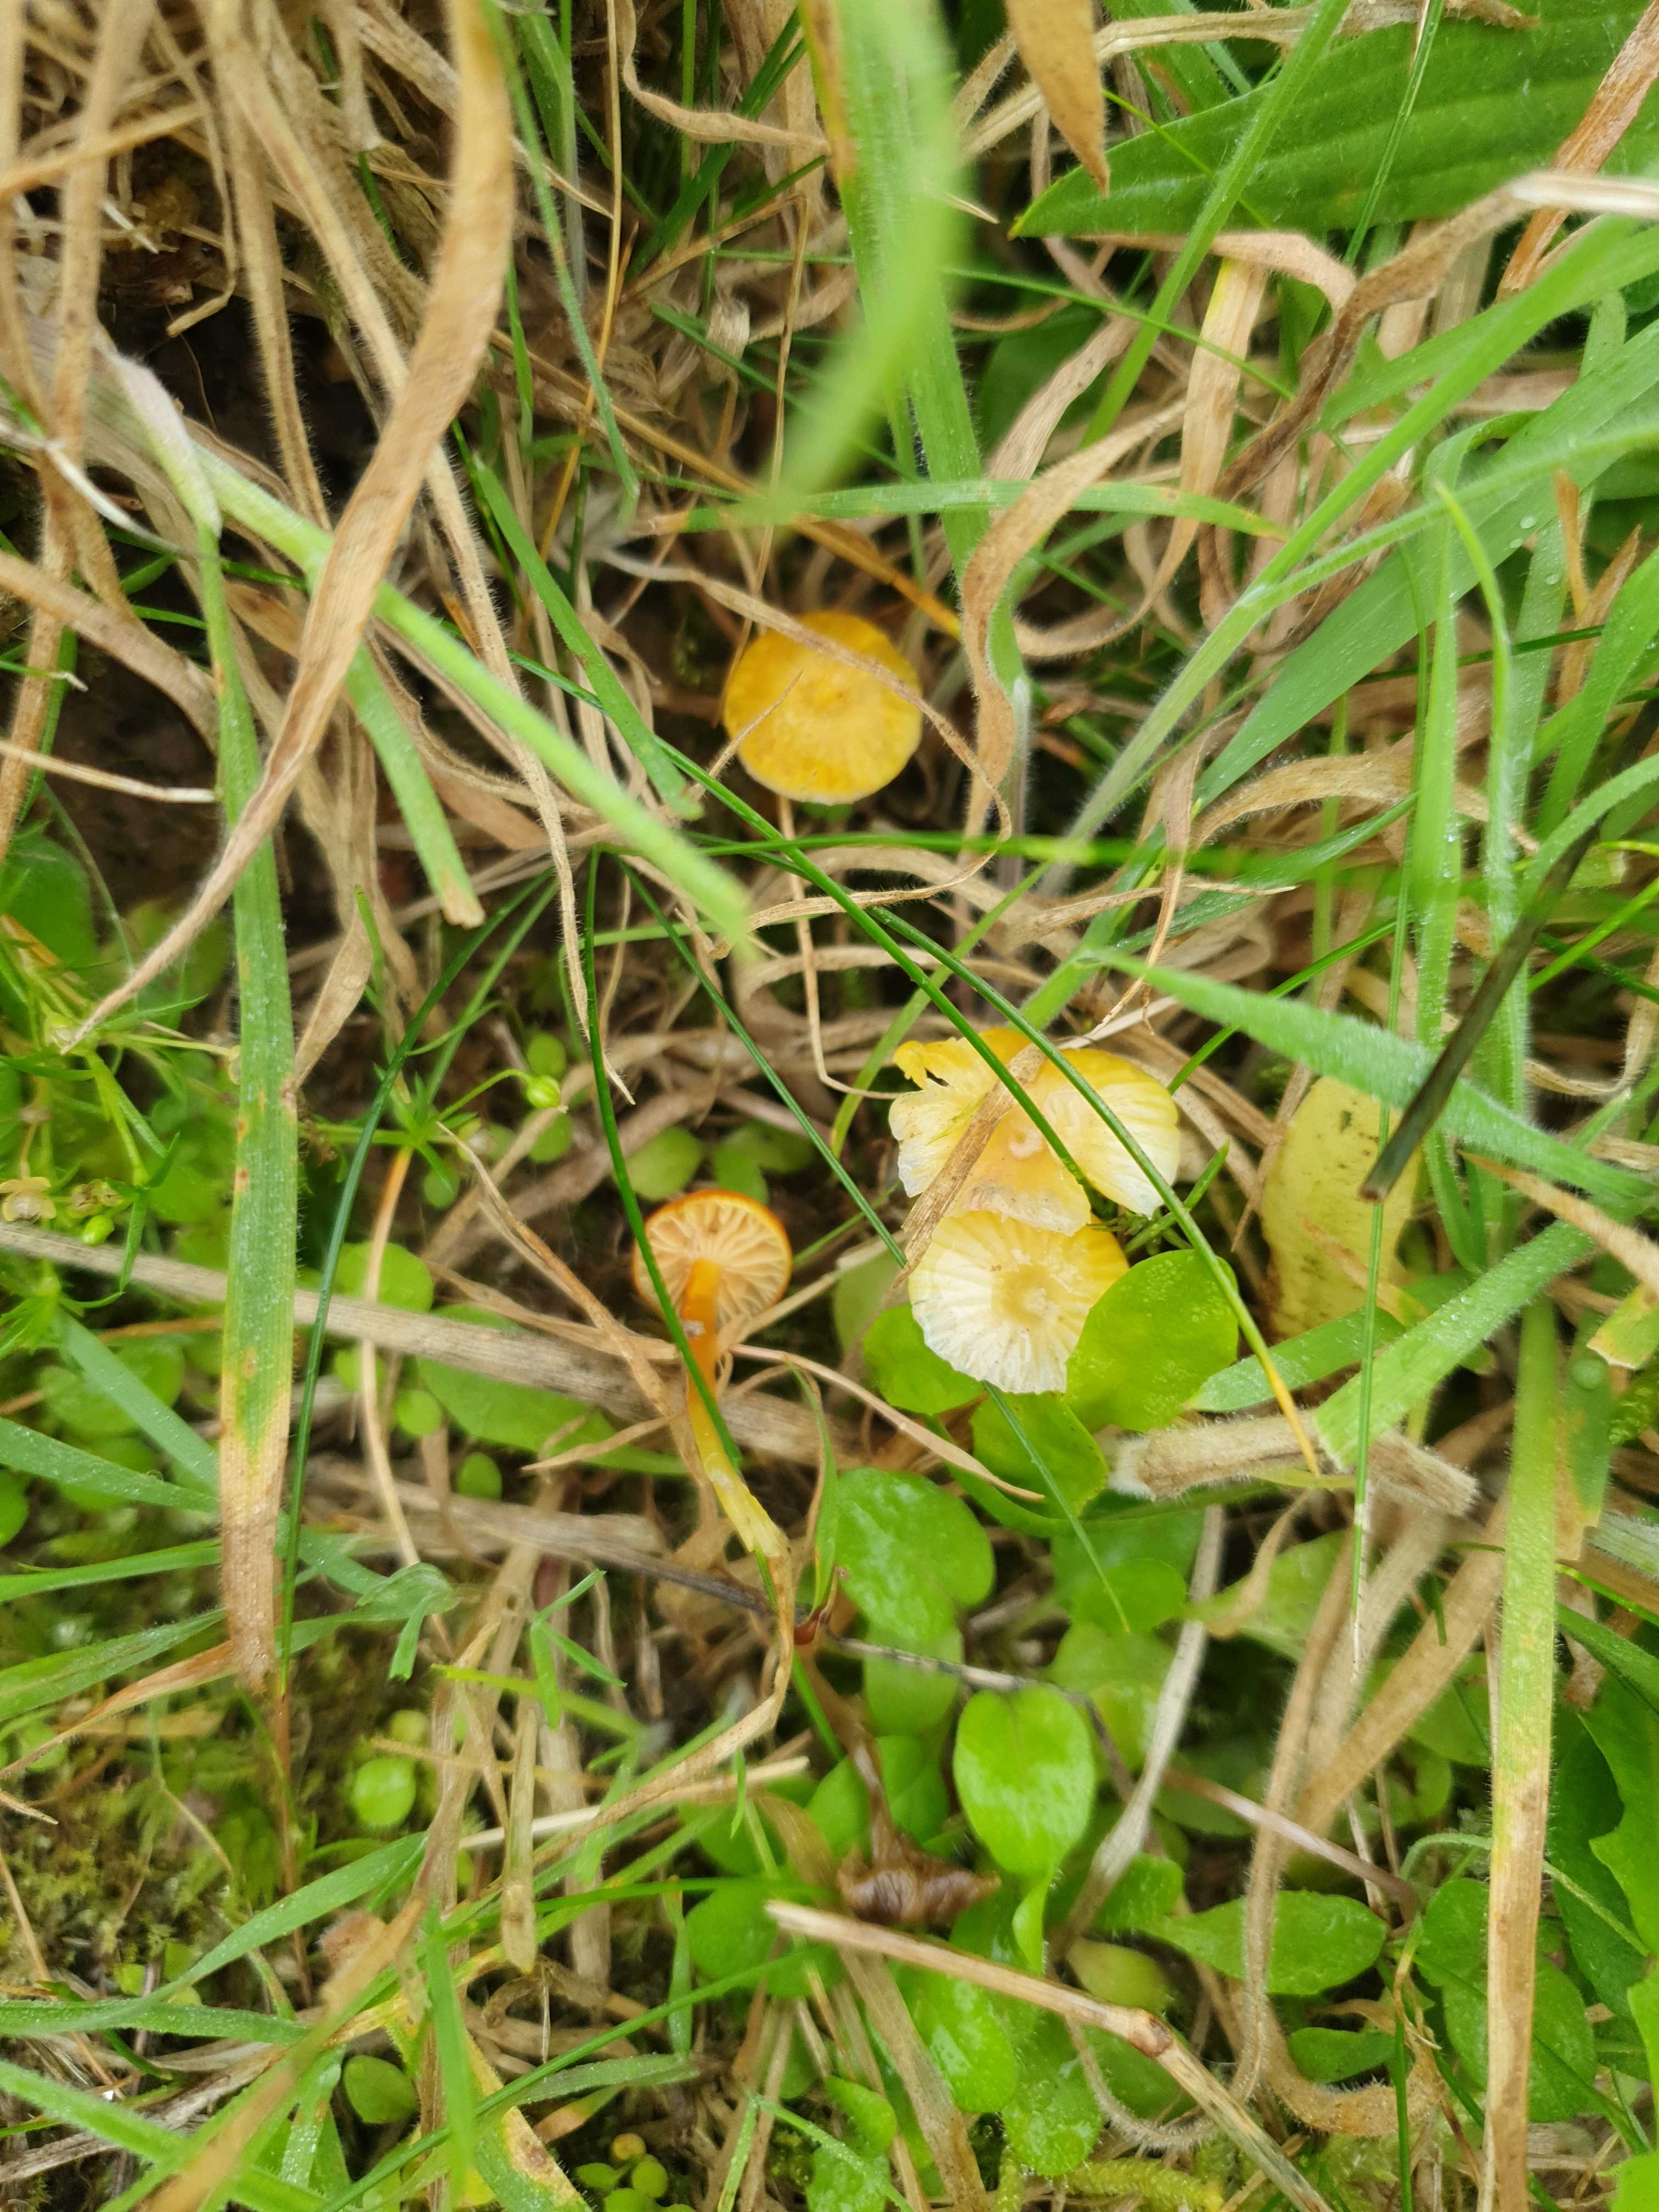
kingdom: Fungi
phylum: Basidiomycota
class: Agaricomycetes
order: Agaricales
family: Hygrophoraceae
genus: Hygrocybe
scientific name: Hygrocybe glutinipes
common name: slimstokket vokshat
